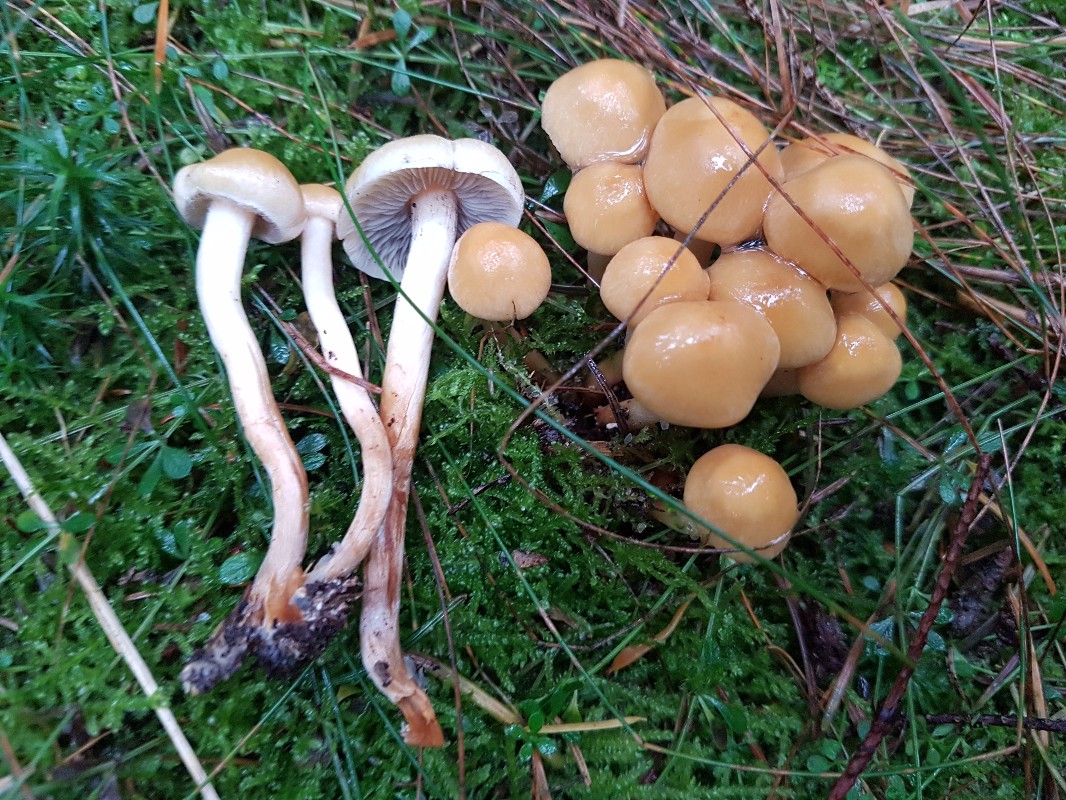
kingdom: Fungi
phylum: Basidiomycota
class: Agaricomycetes
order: Agaricales
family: Strophariaceae
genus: Hypholoma
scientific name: Hypholoma capnoides
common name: gran-svovlhat
